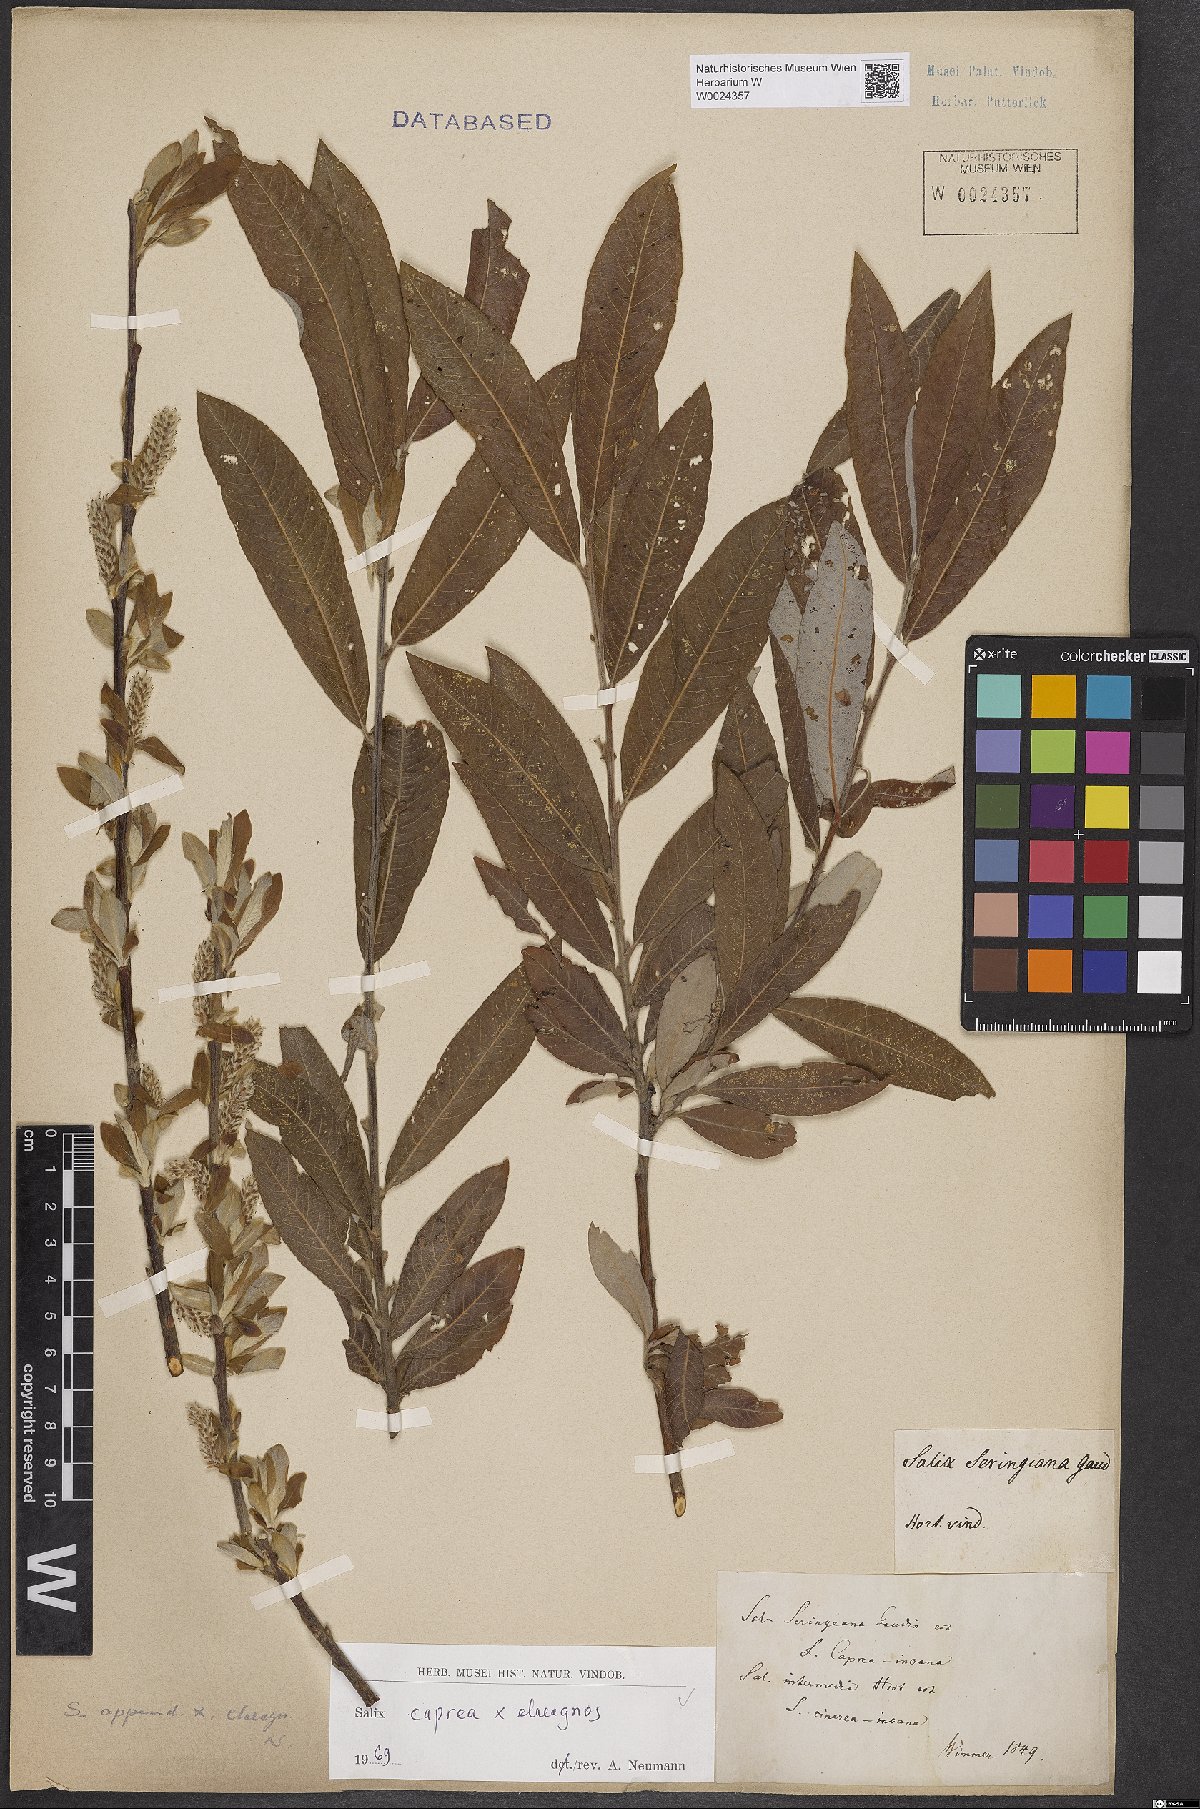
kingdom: Plantae
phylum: Tracheophyta
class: Magnoliopsida
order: Malpighiales
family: Salicaceae
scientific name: Salicaceae
